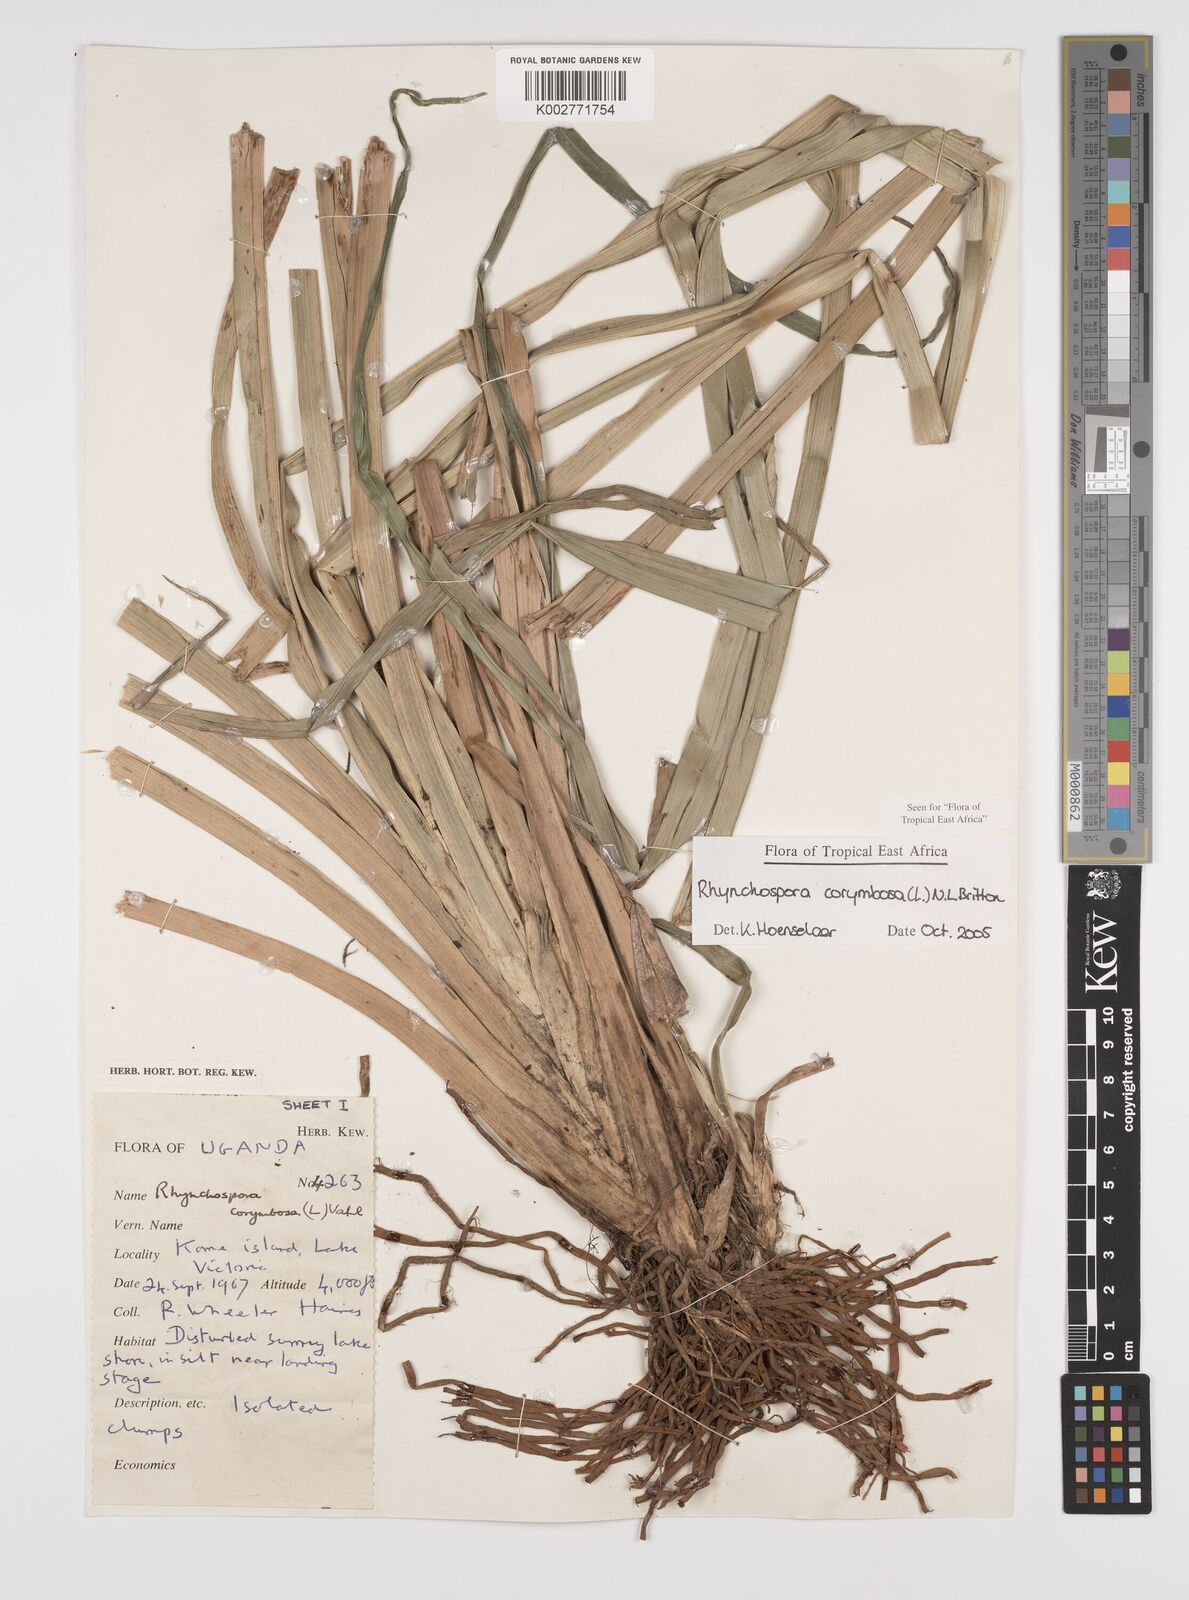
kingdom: Plantae
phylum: Tracheophyta
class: Liliopsida
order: Poales
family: Cyperaceae
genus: Rhynchospora
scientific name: Rhynchospora corymbosa
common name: Golden beak sedge
